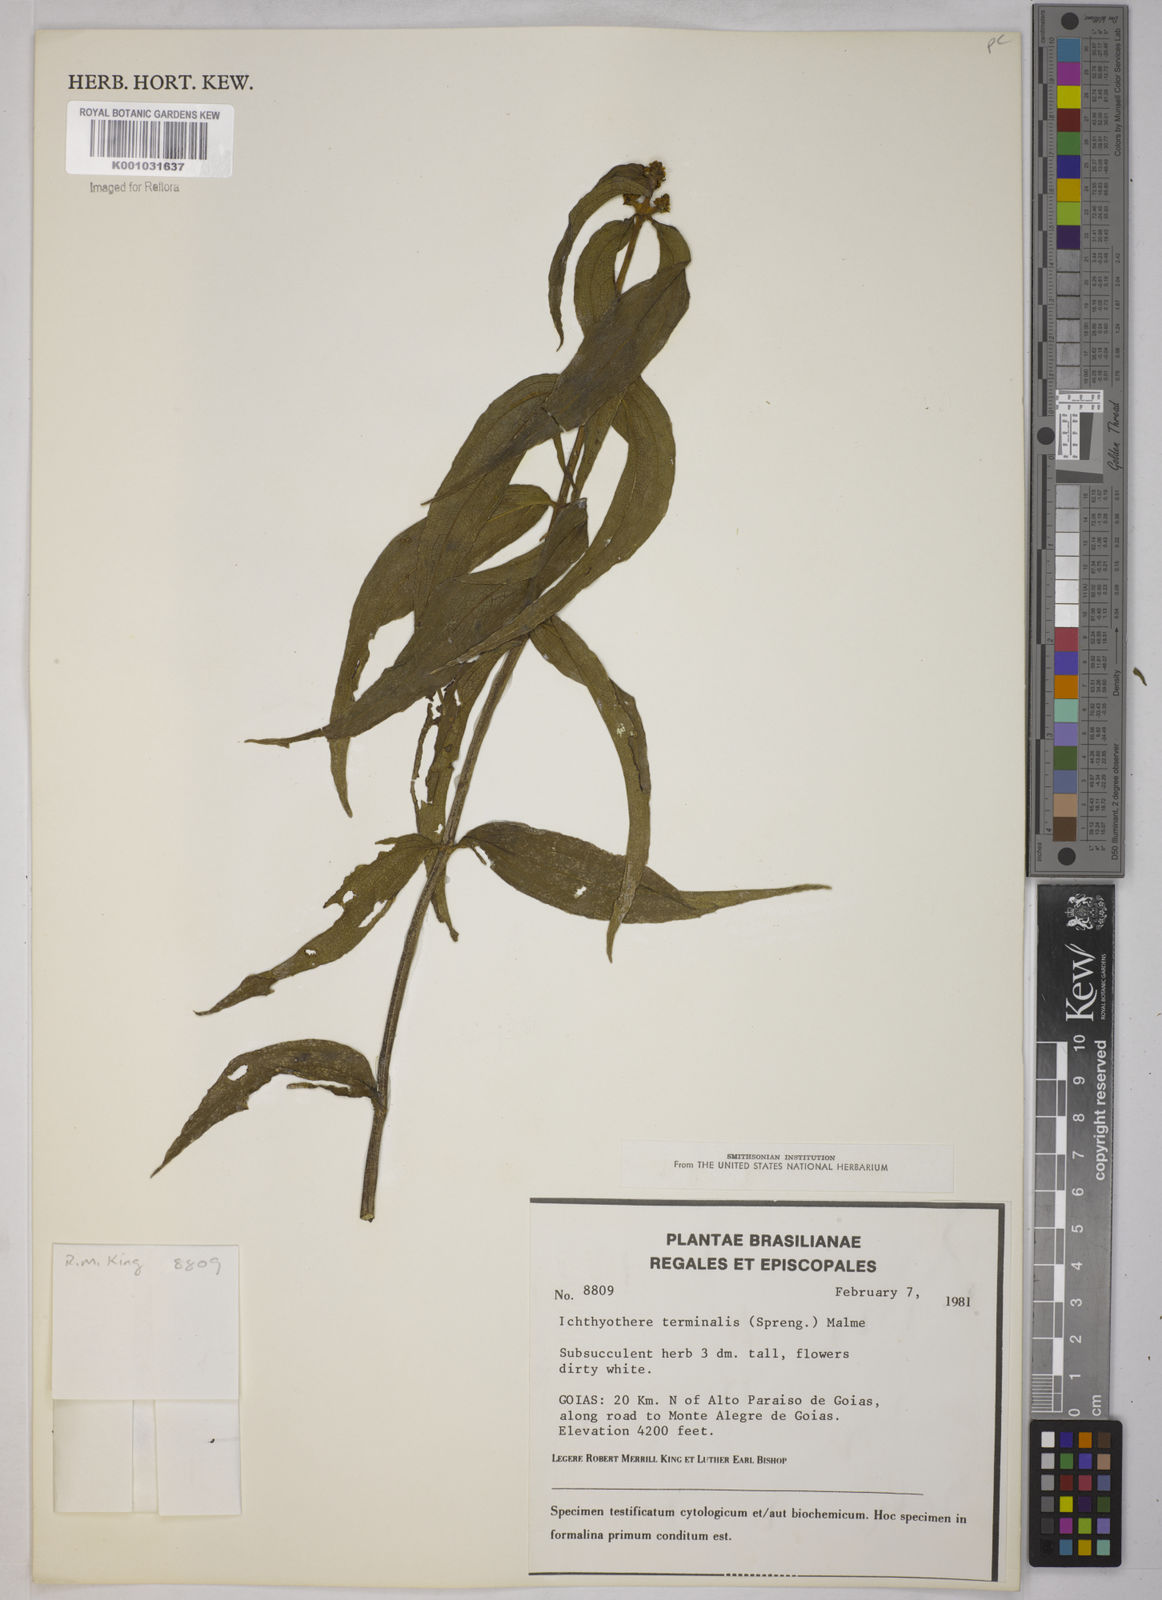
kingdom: Plantae
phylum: Tracheophyta
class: Magnoliopsida
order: Asterales
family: Asteraceae
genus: Ichthyothere
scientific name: Ichthyothere terminalis
